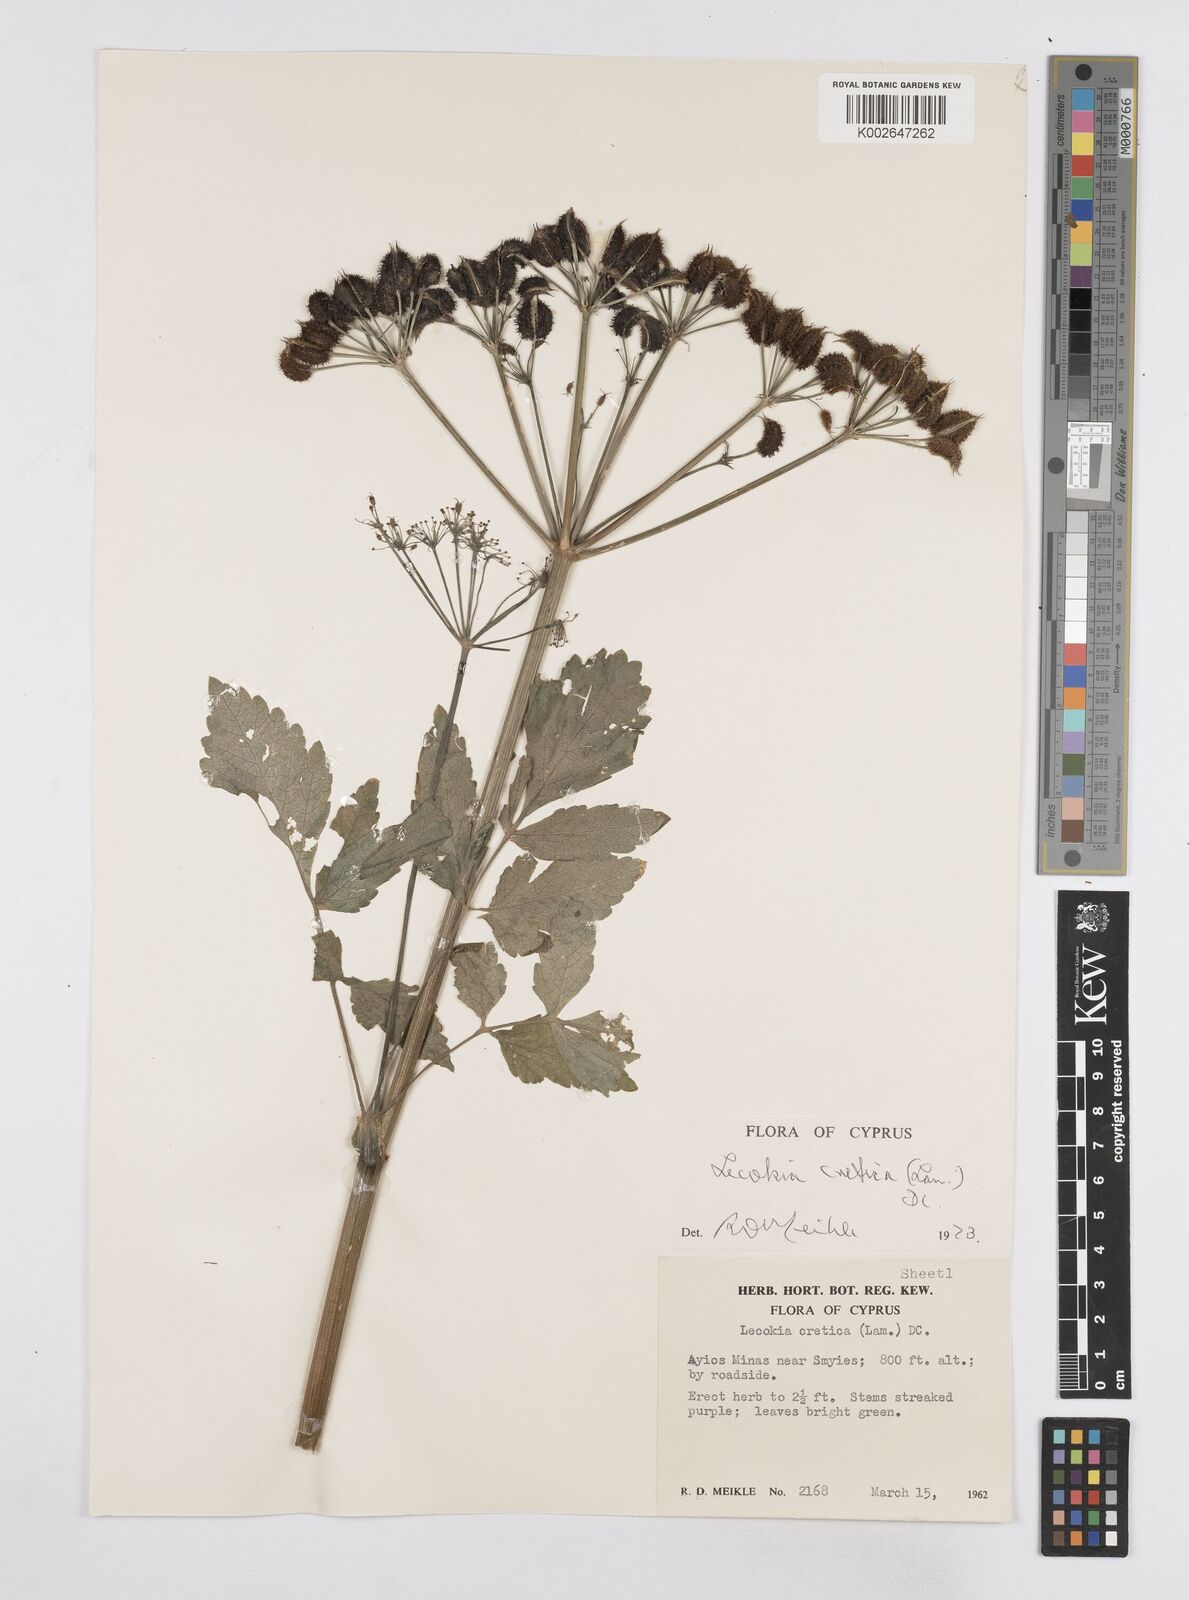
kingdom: Plantae
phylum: Tracheophyta
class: Magnoliopsida
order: Apiales
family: Apiaceae
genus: Lecokia
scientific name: Lecokia cretica
